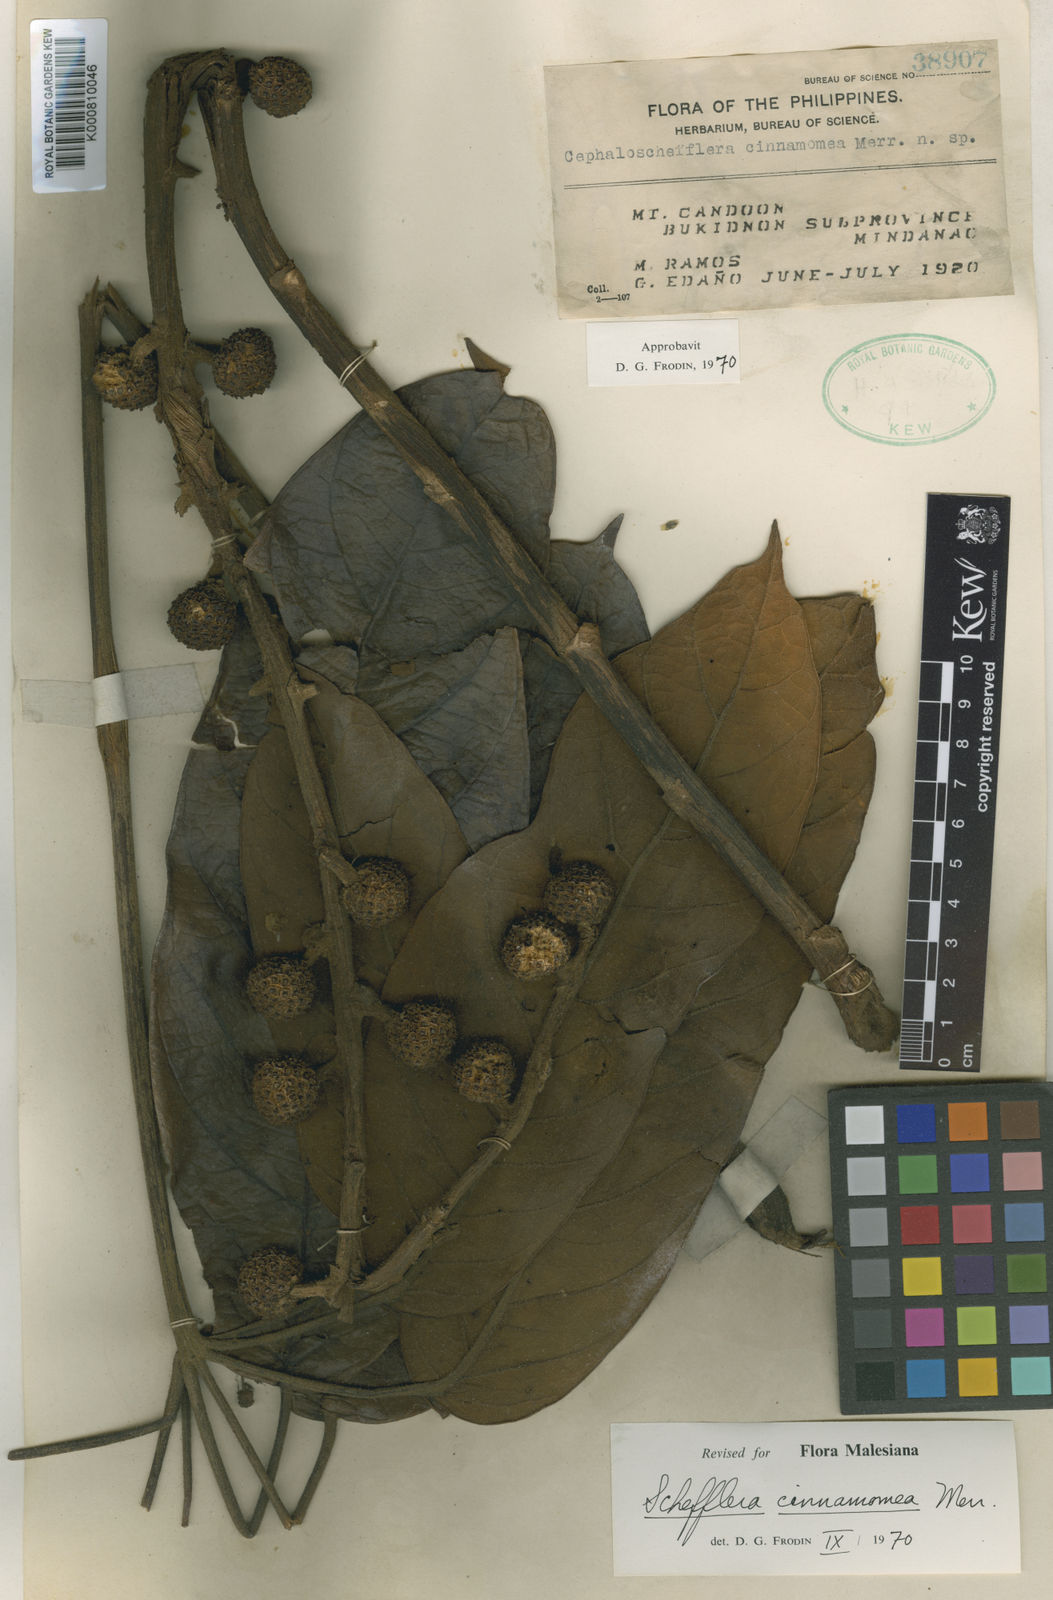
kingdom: Plantae
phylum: Tracheophyta
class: Magnoliopsida
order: Apiales
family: Araliaceae
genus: Heptapleurum
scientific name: Heptapleurum cinnamomeum
